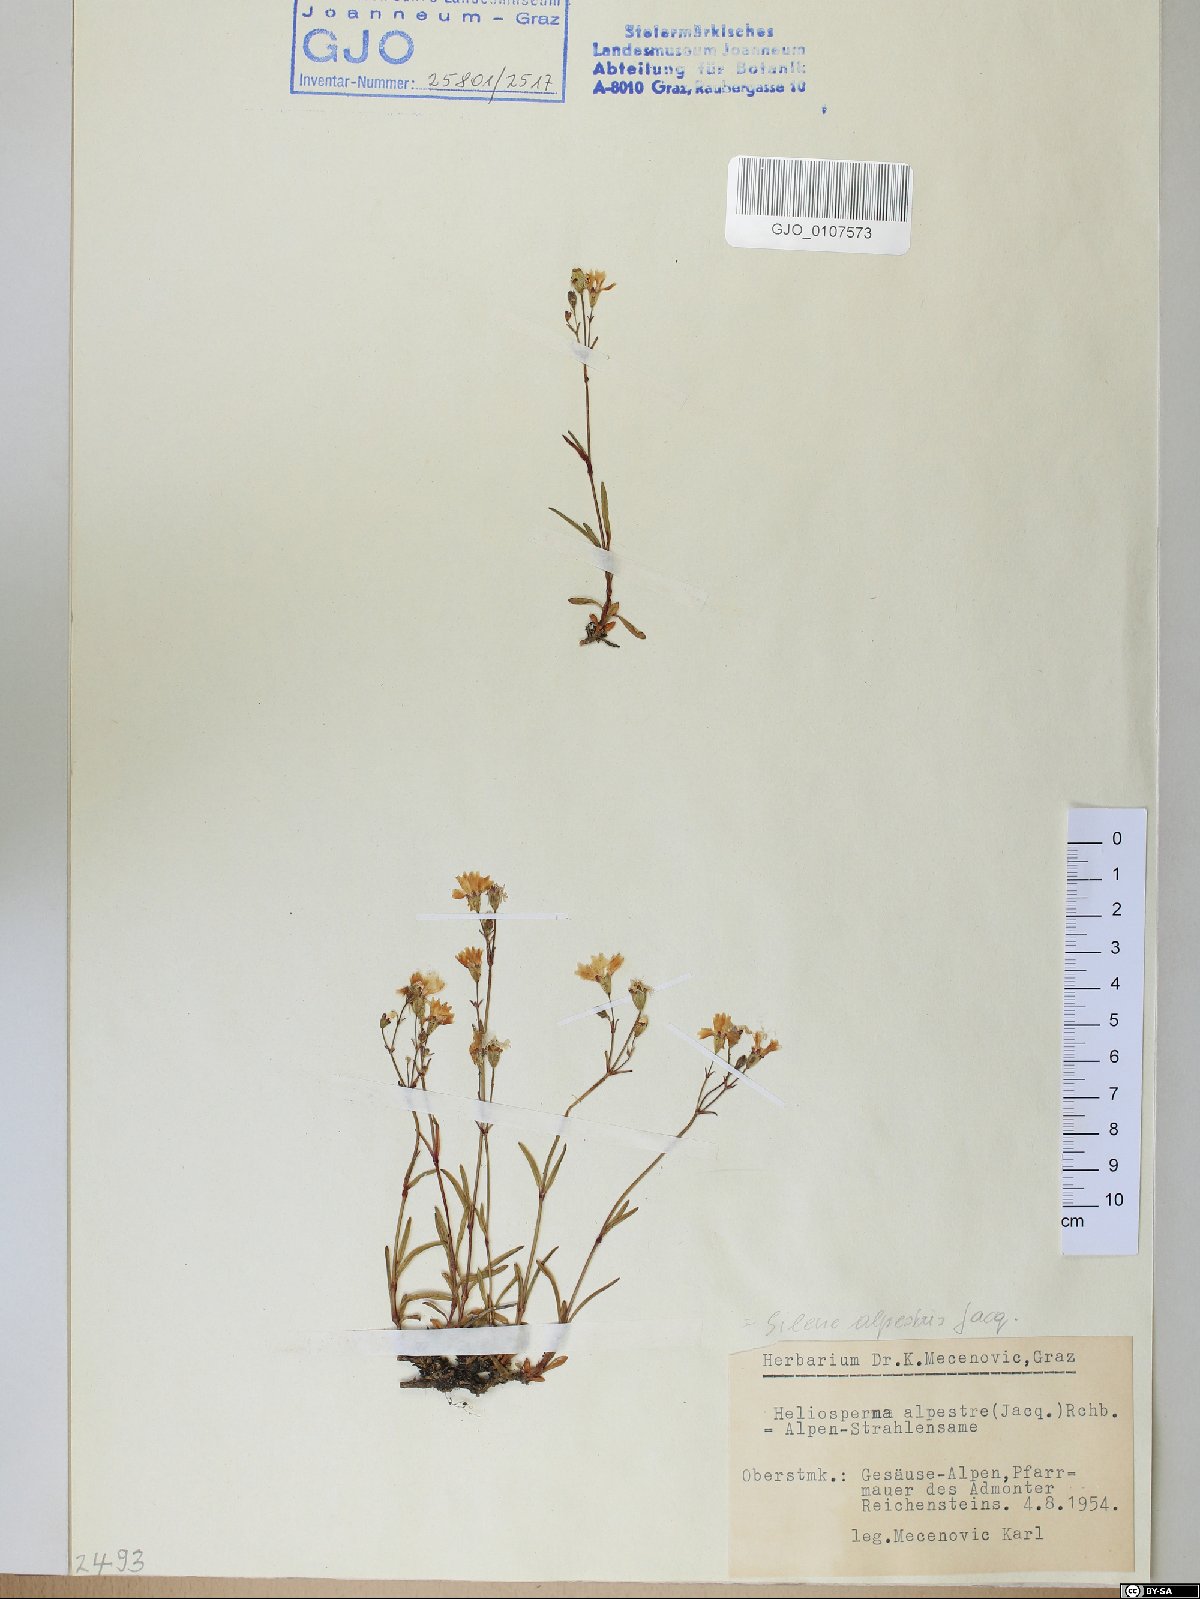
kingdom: Plantae
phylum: Tracheophyta
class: Magnoliopsida
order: Caryophyllales
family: Caryophyllaceae
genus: Heliosperma
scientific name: Heliosperma alpestre
